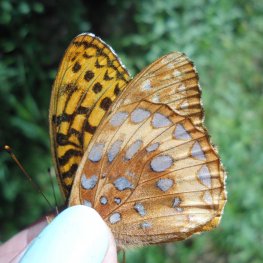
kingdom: Animalia
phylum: Arthropoda
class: Insecta
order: Lepidoptera
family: Nymphalidae
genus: Speyeria
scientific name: Speyeria cybele
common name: Great Spangled Fritillary
